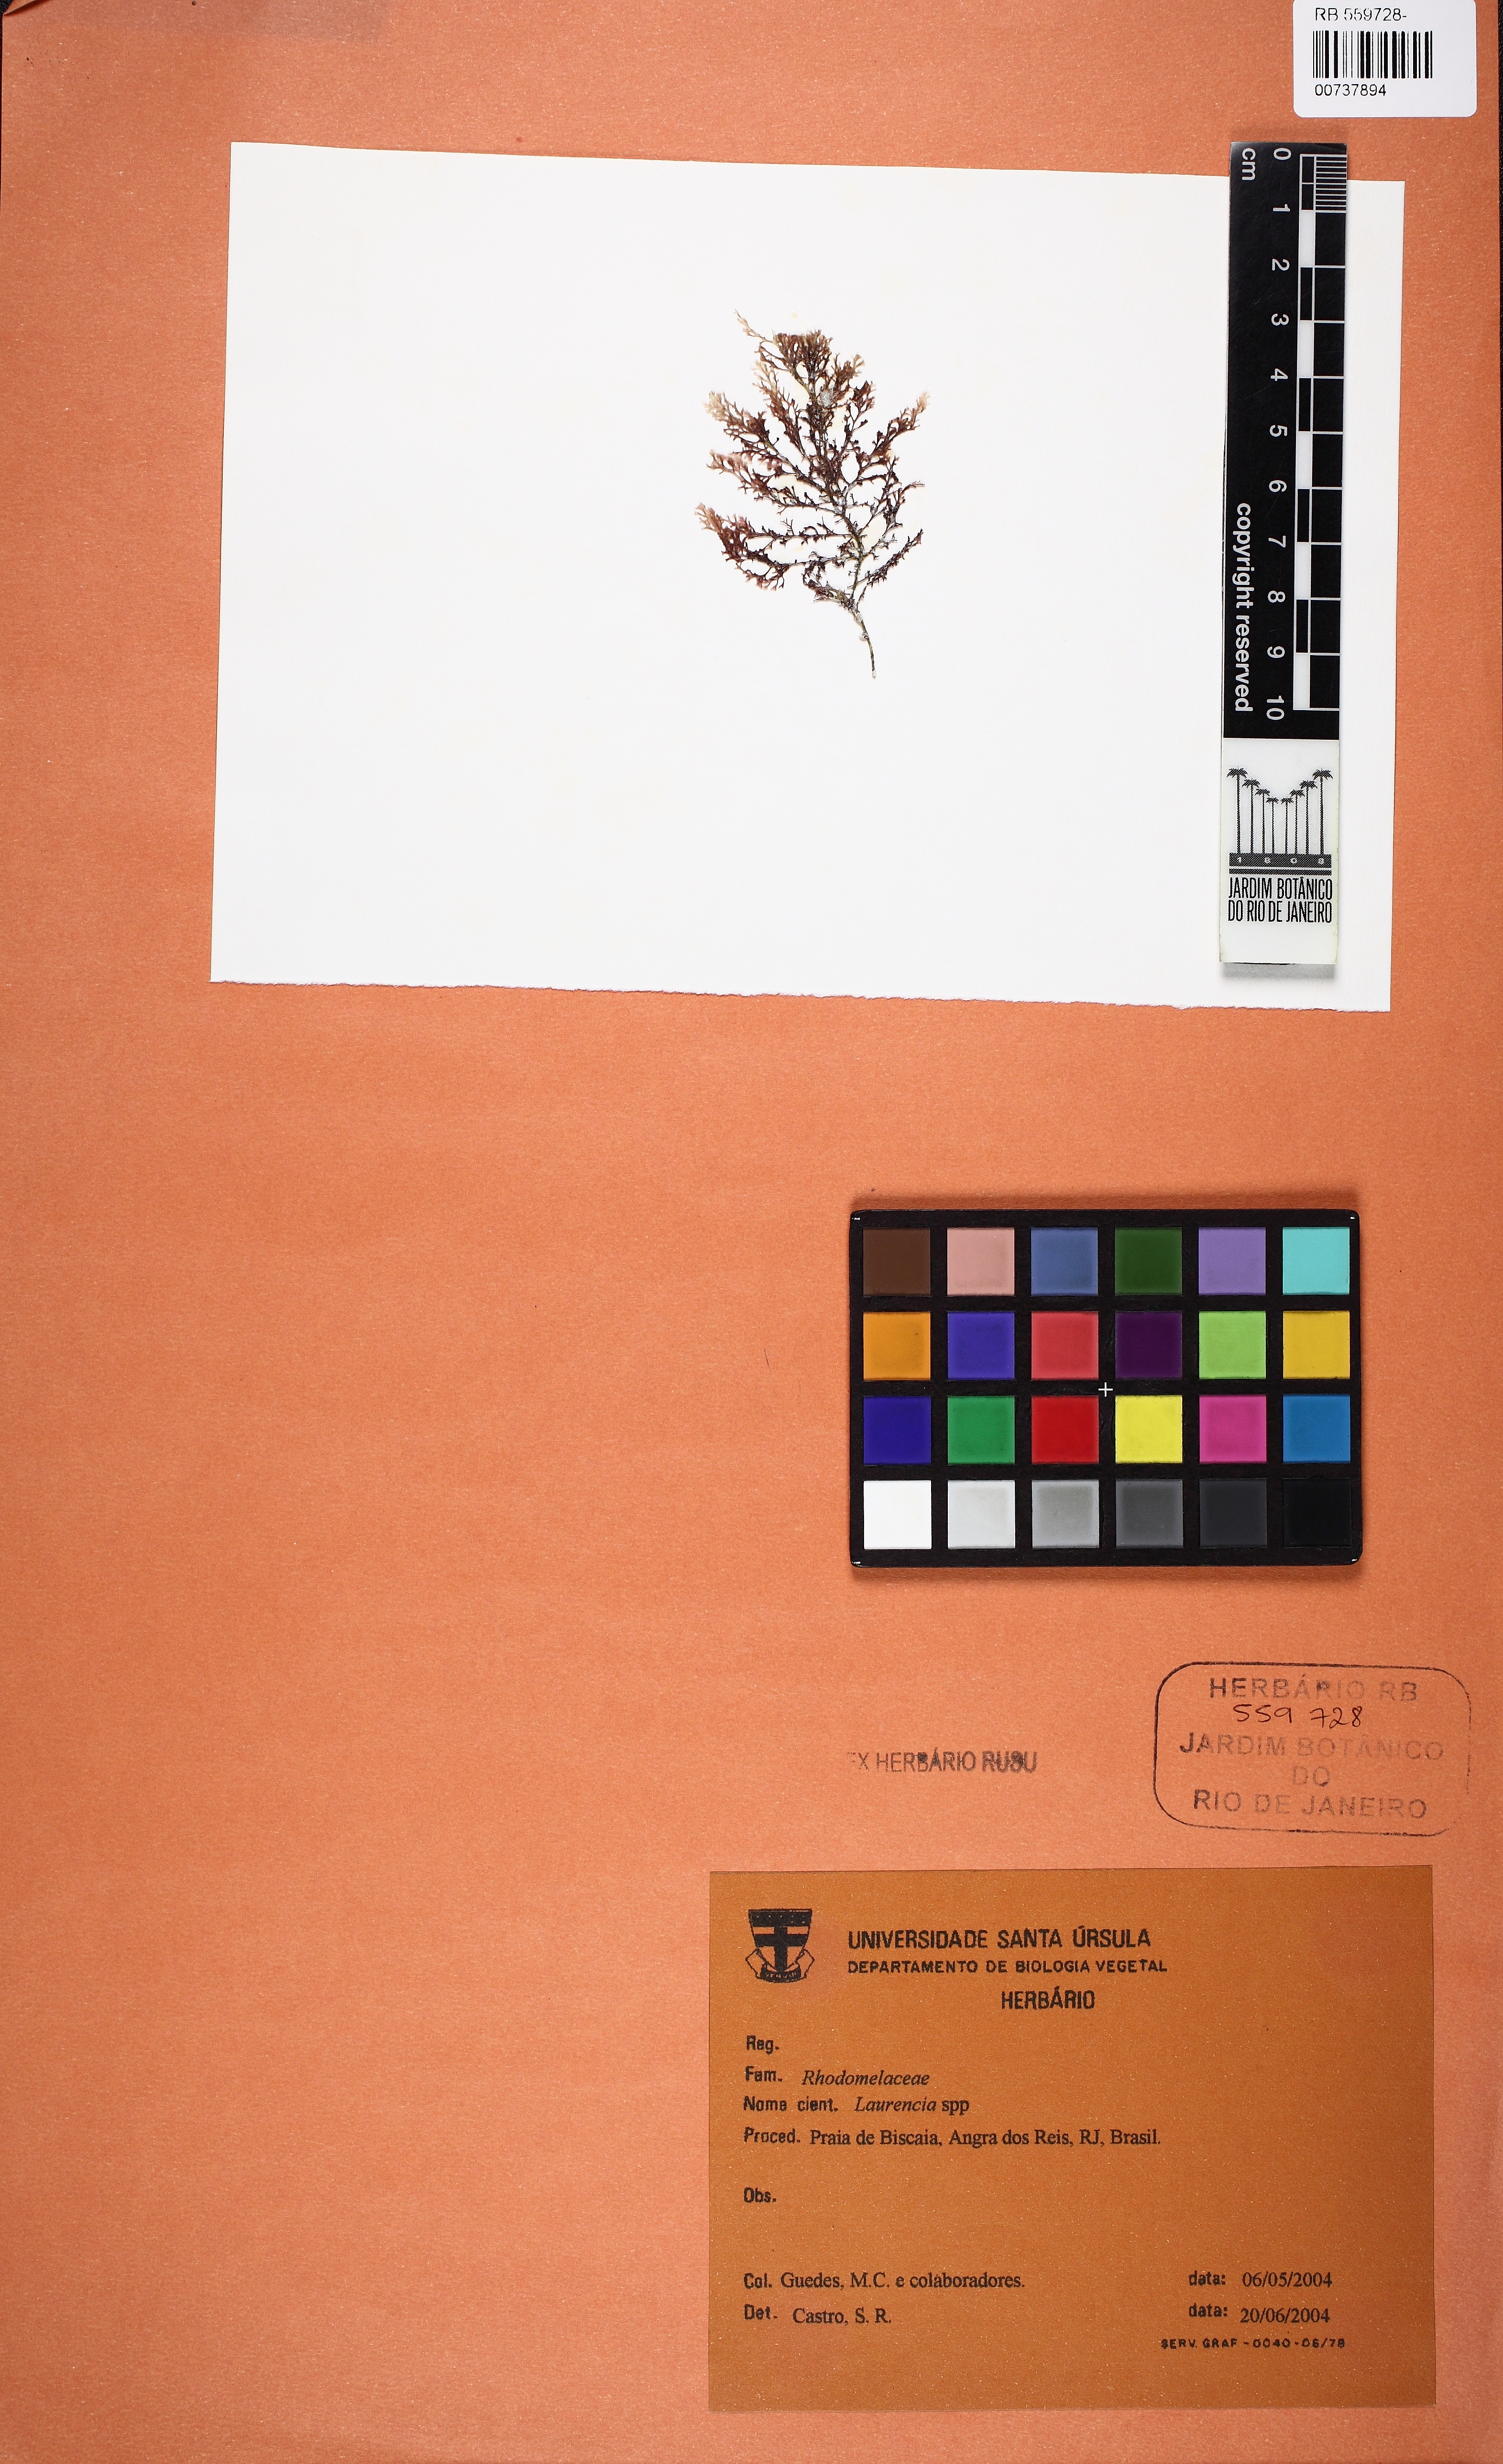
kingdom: Plantae
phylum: Rhodophyta
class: Florideophyceae
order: Ceramiales
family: Rhodomelaceae
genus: Laurencia
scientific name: Laurencia
